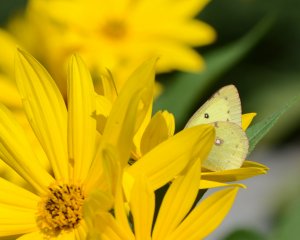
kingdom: Animalia
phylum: Arthropoda
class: Insecta
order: Lepidoptera
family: Pieridae
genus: Colias
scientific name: Colias philodice
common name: Clouded Sulphur
